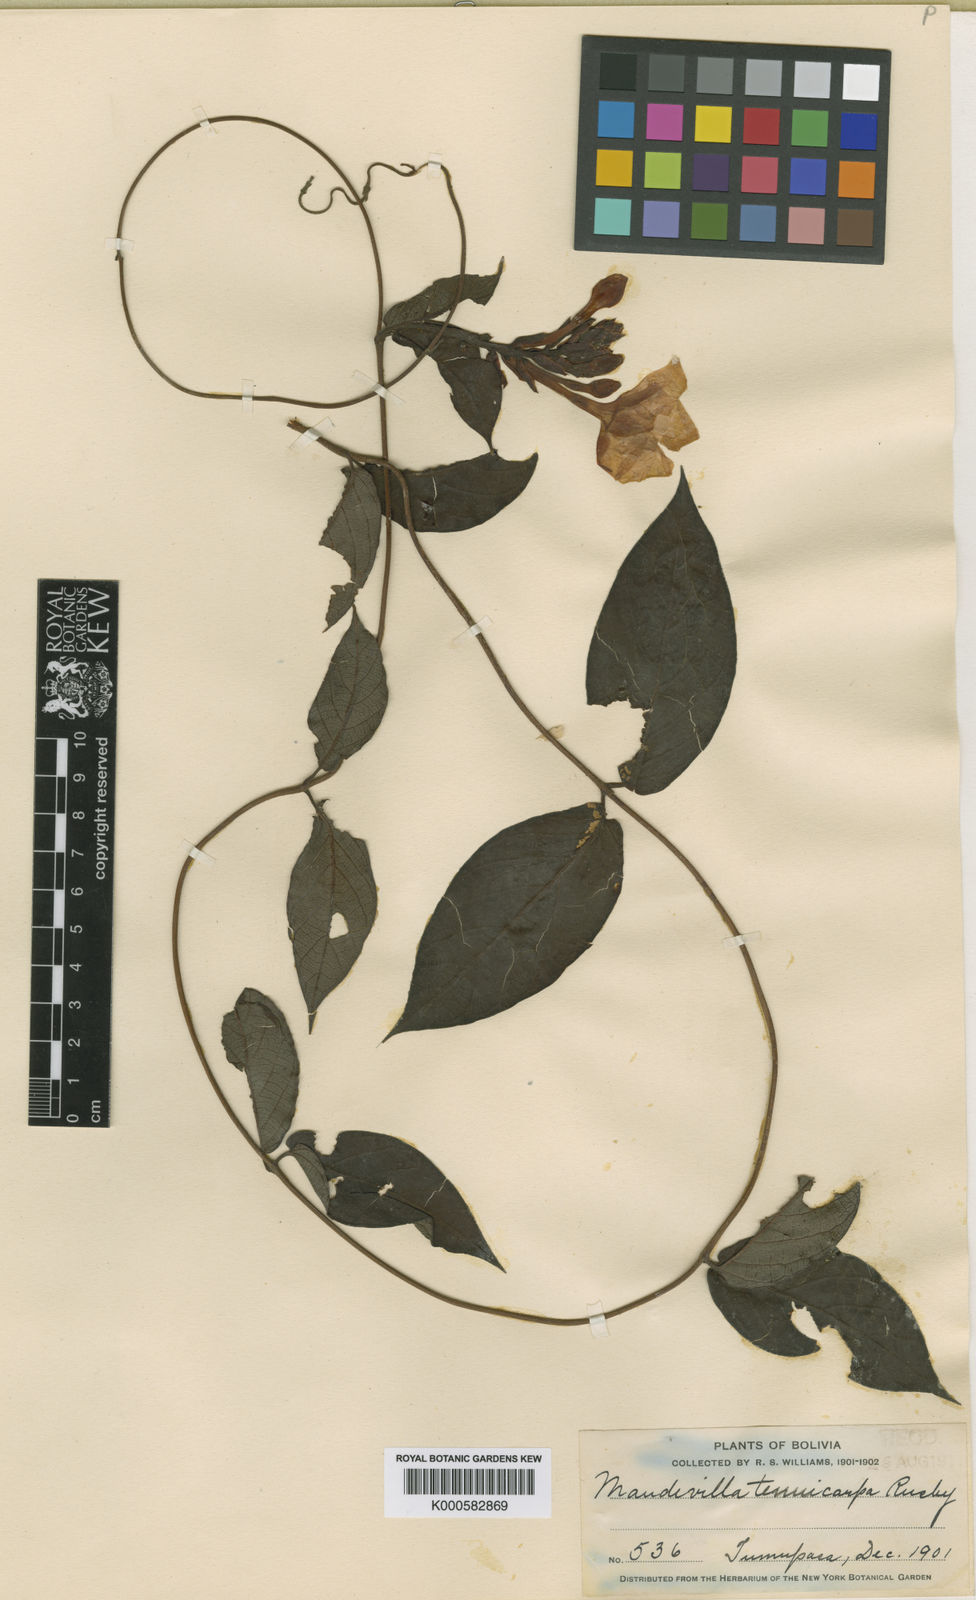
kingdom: Plantae
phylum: Tracheophyta
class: Magnoliopsida
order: Gentianales
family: Apocynaceae
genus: Mandevilla
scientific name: Mandevilla rugellosa
